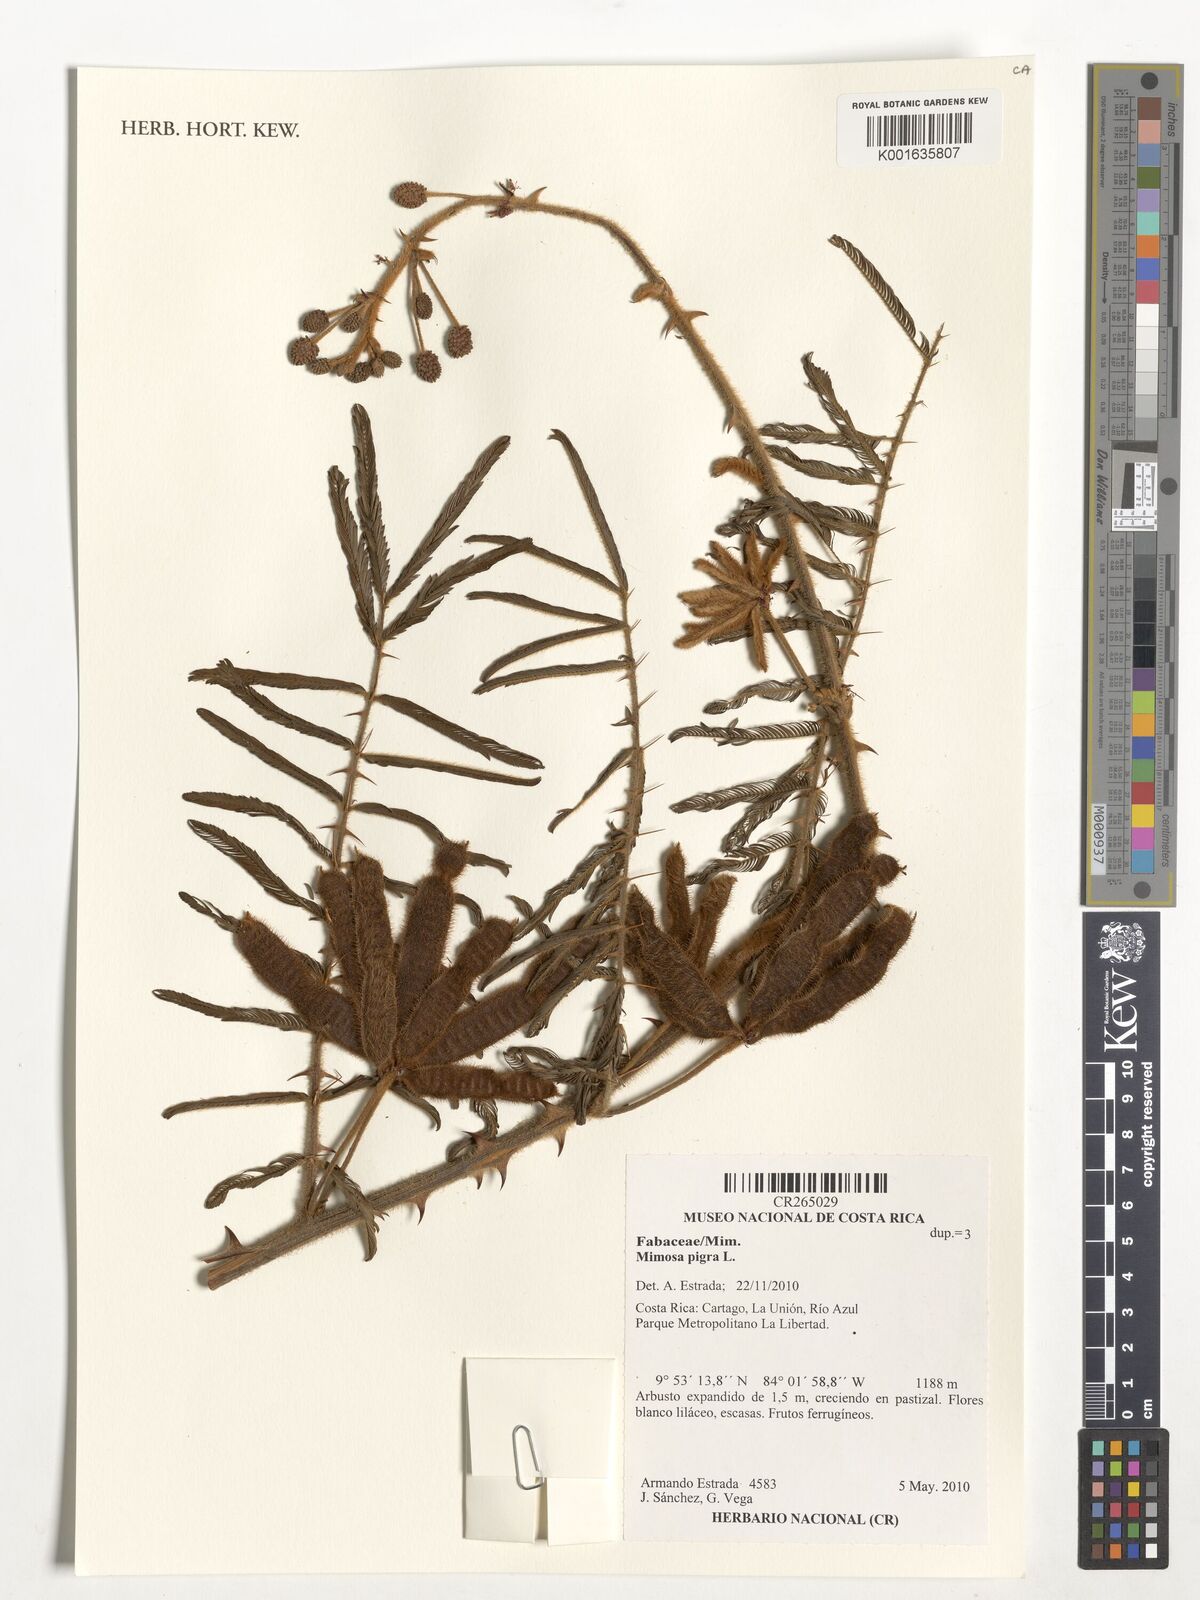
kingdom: Plantae
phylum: Tracheophyta
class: Magnoliopsida
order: Fabales
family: Fabaceae
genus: Mimosa
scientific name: Mimosa pigra
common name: Black mimosa
